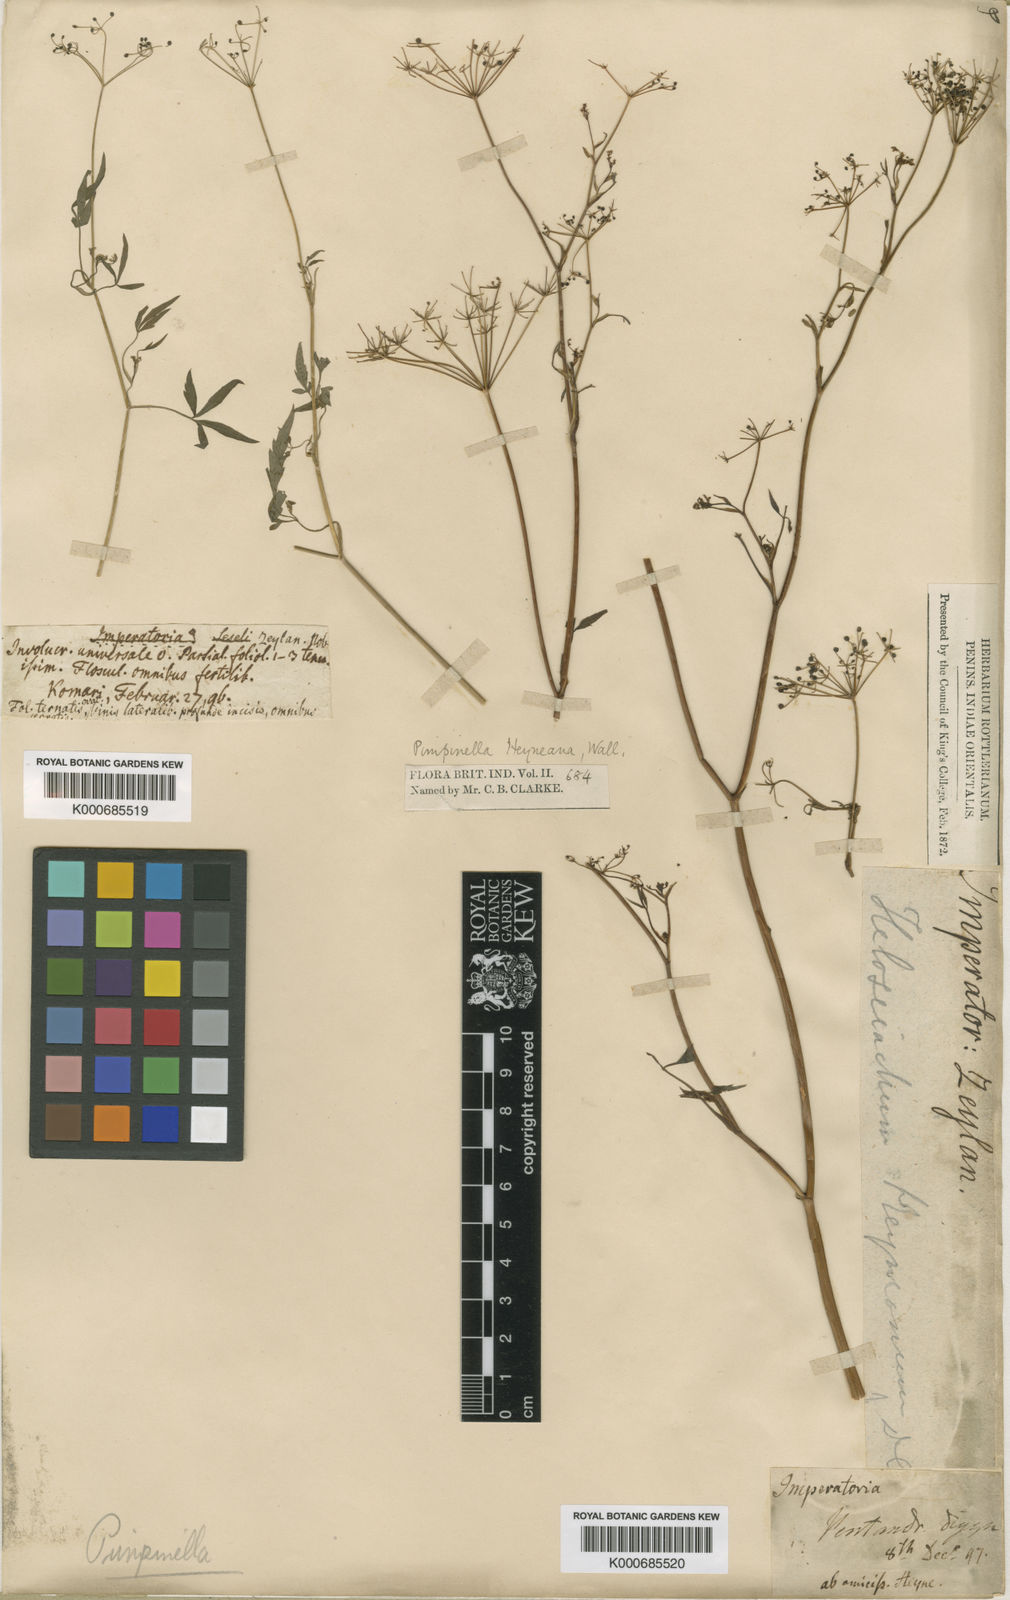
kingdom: Plantae
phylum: Tracheophyta
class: Magnoliopsida
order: Apiales
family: Apiaceae
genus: Pimpinella
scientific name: Pimpinella
